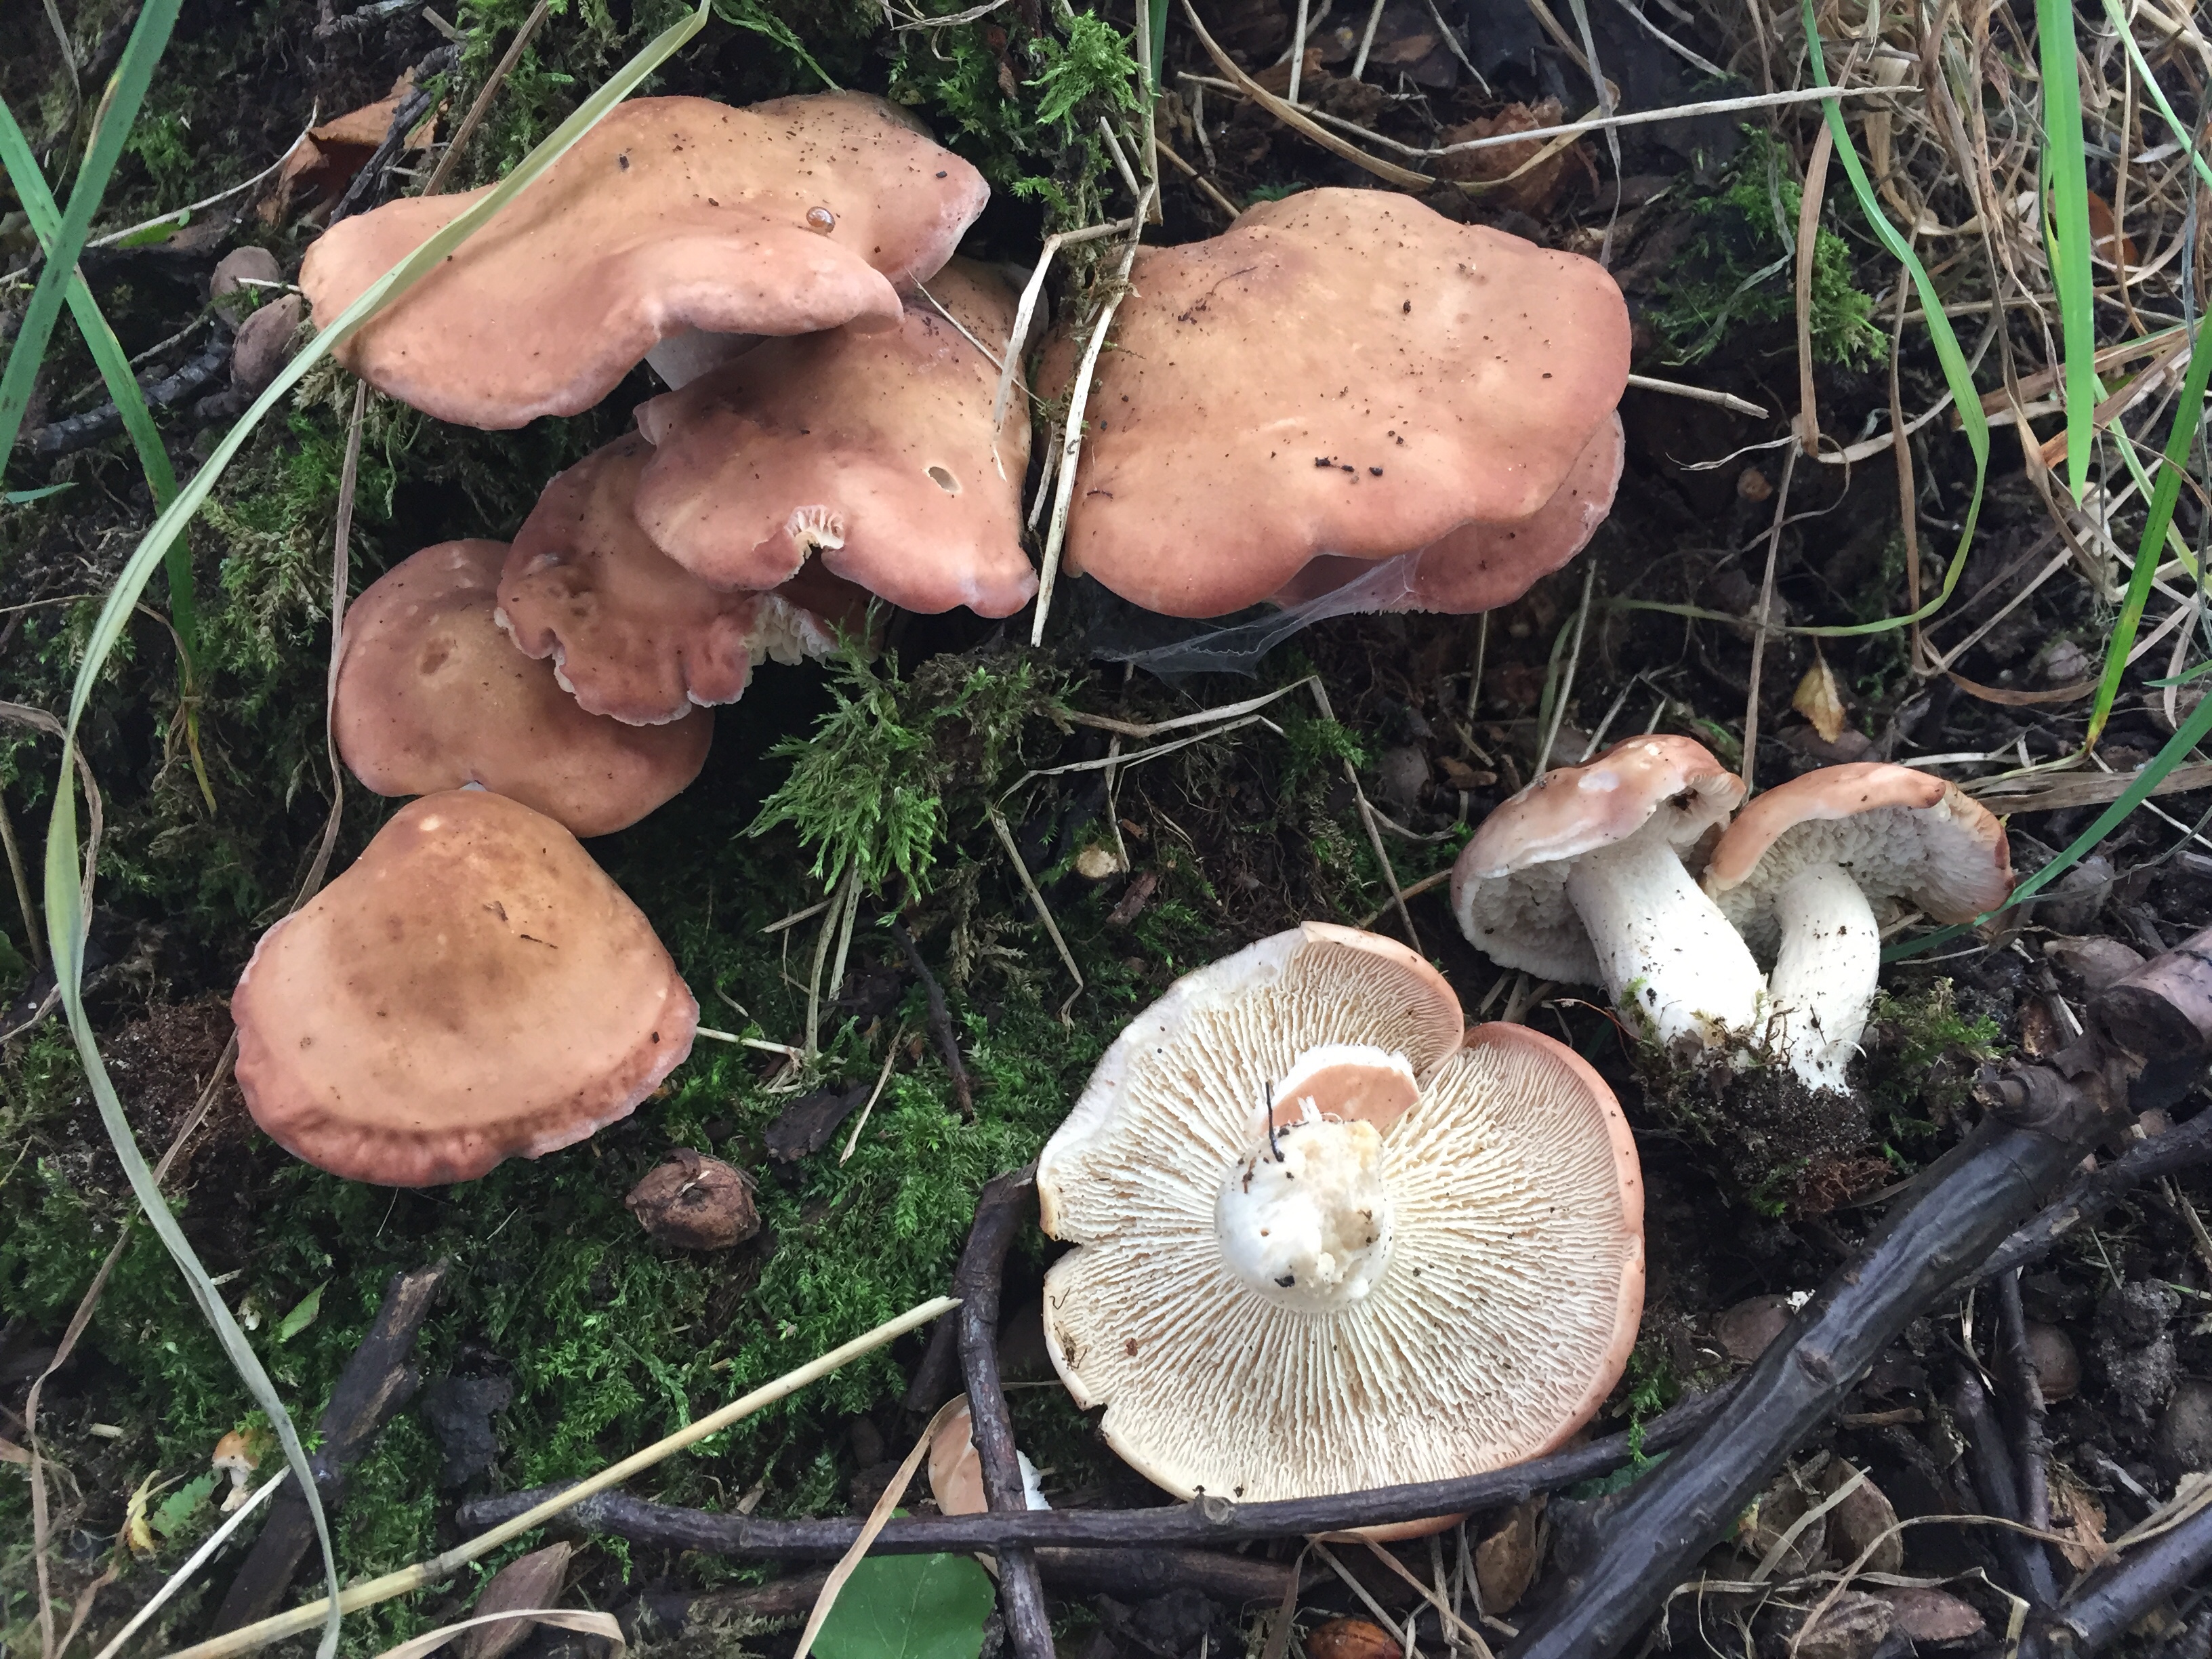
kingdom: Fungi
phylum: Basidiomycota
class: Agaricomycetes
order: Agaricales
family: Entolomataceae
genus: Clitopilus
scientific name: Clitopilus geminus
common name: kødfarvet troldhat
